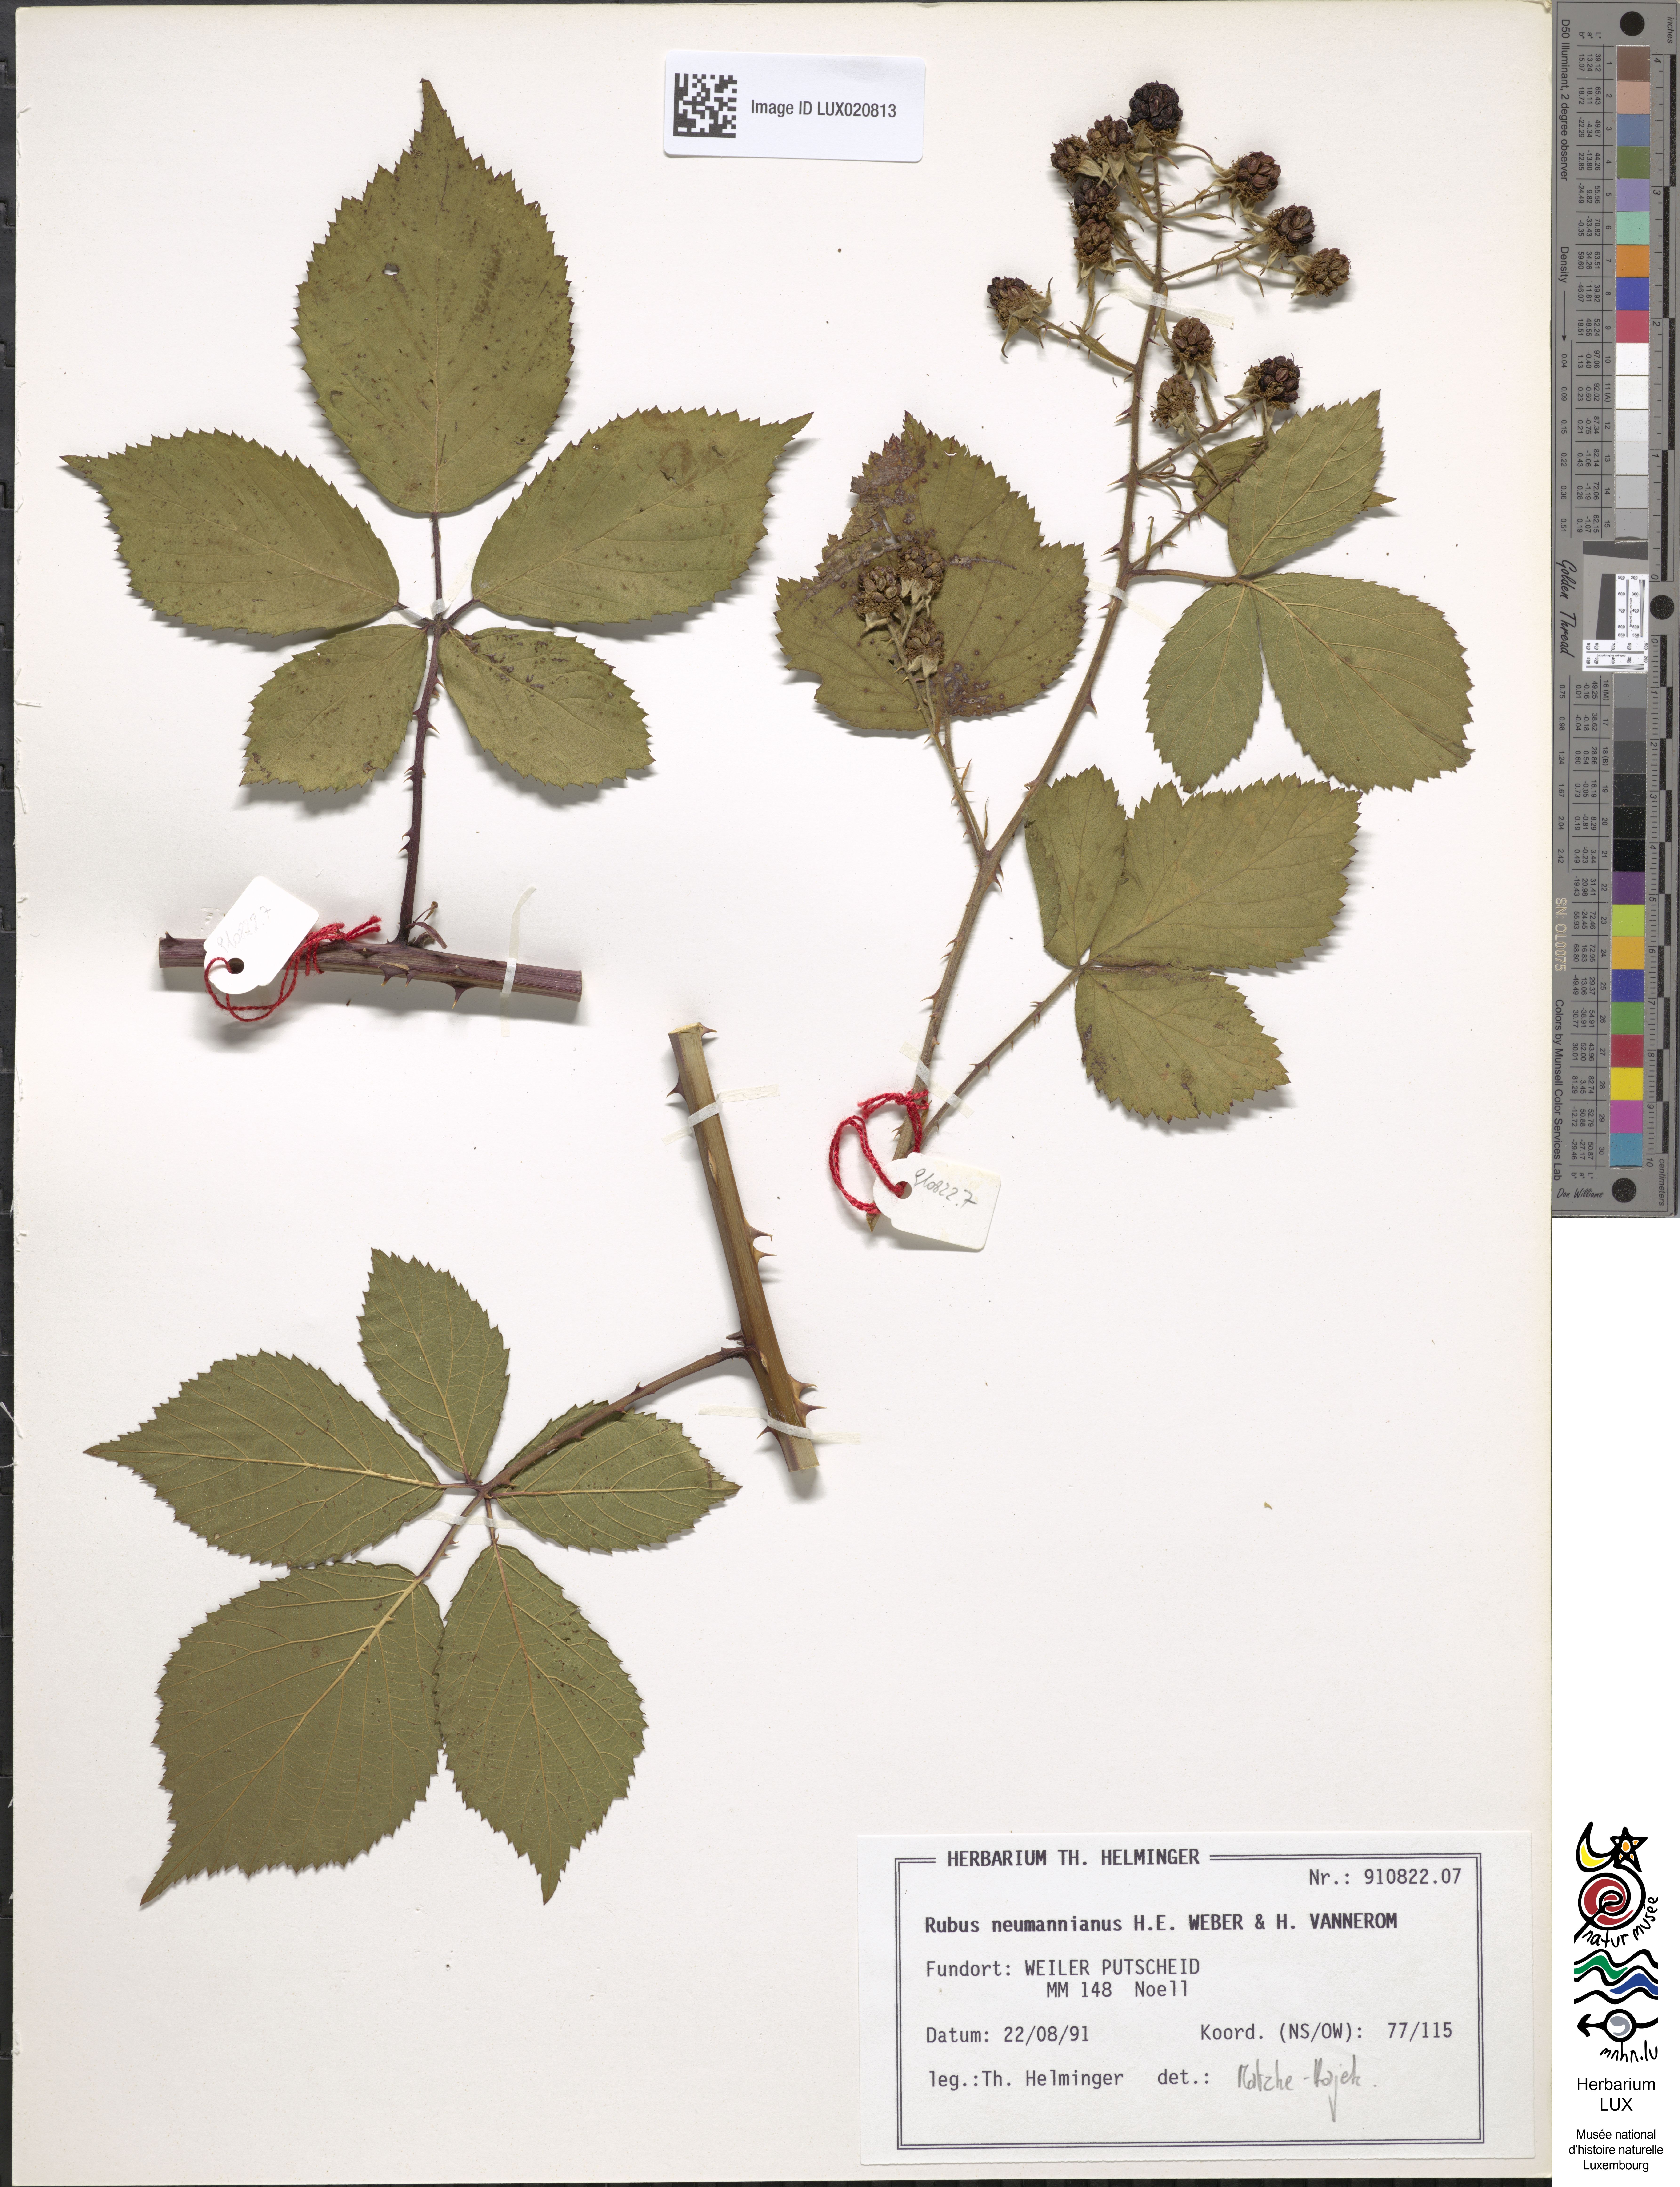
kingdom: Plantae
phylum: Tracheophyta
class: Magnoliopsida
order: Rosales
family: Rosaceae
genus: Rubus
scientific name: Rubus favonii
